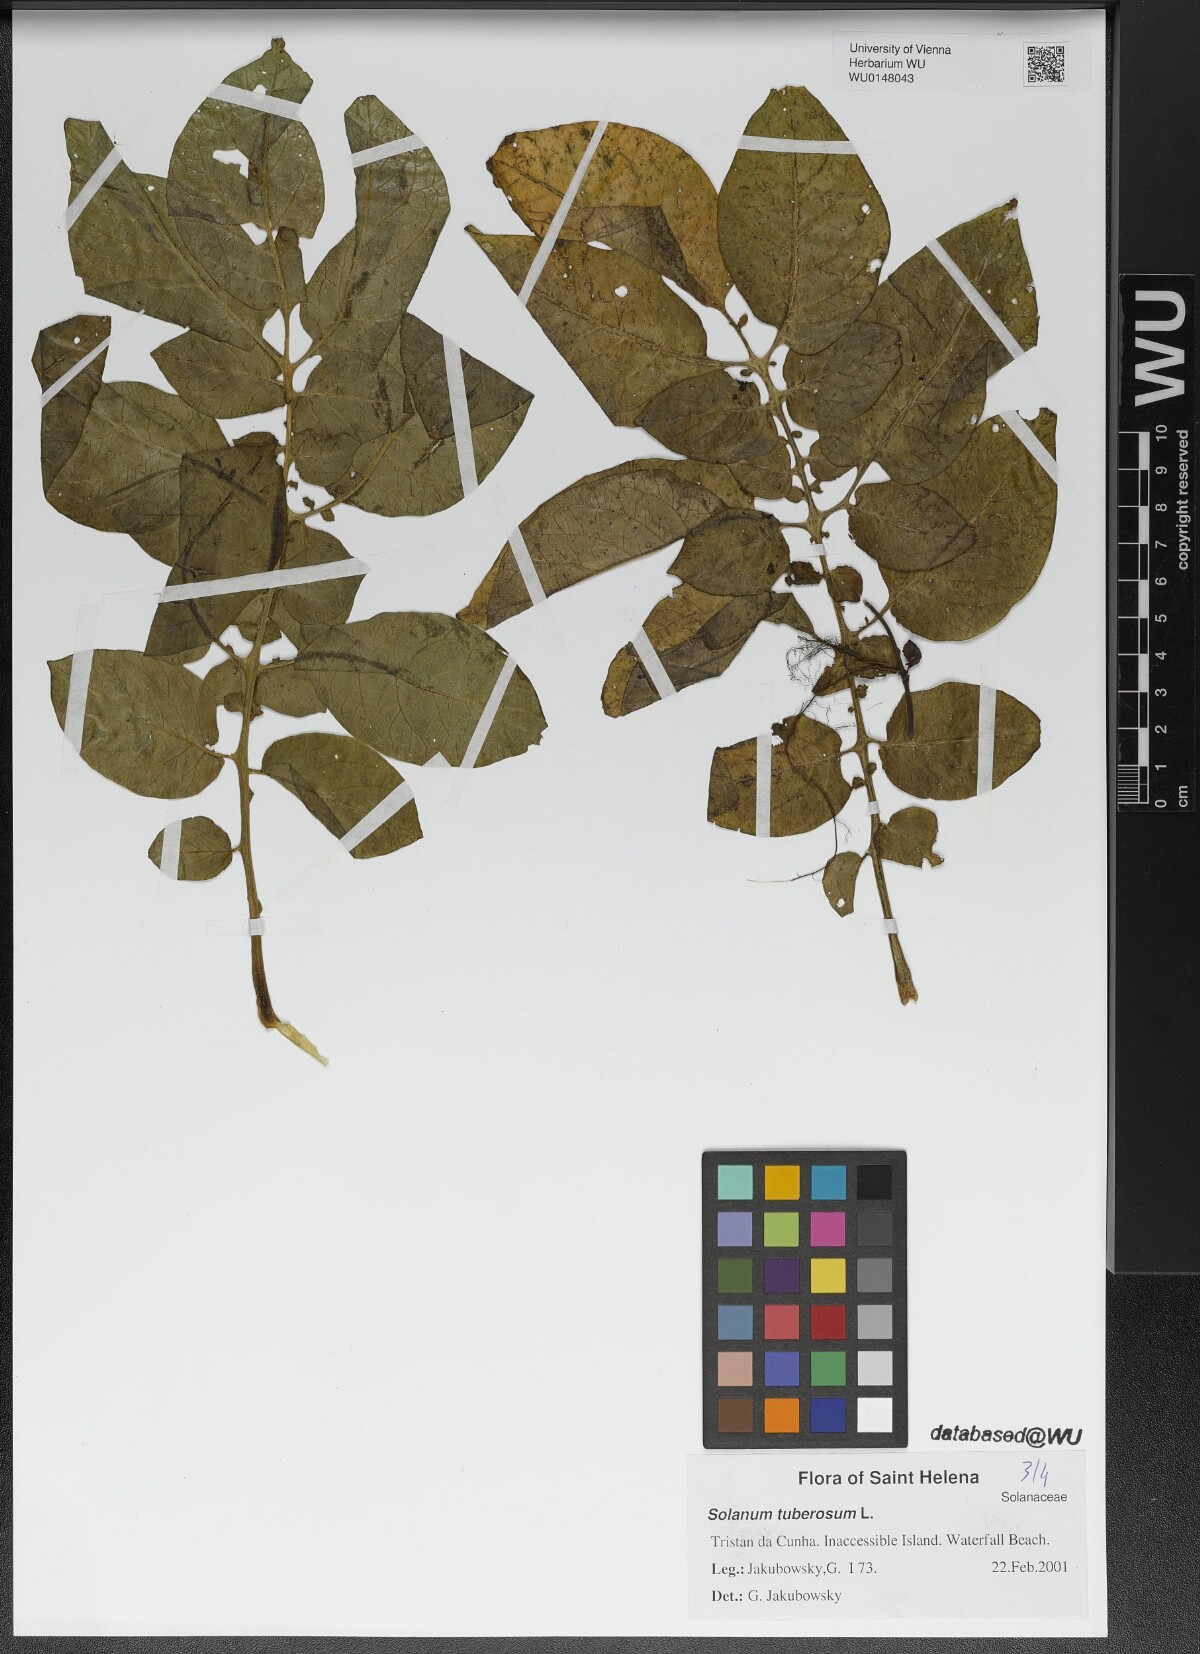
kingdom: Plantae
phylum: Tracheophyta
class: Magnoliopsida
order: Solanales
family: Solanaceae
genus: Solanum
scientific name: Solanum tuberosum
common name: Potato
